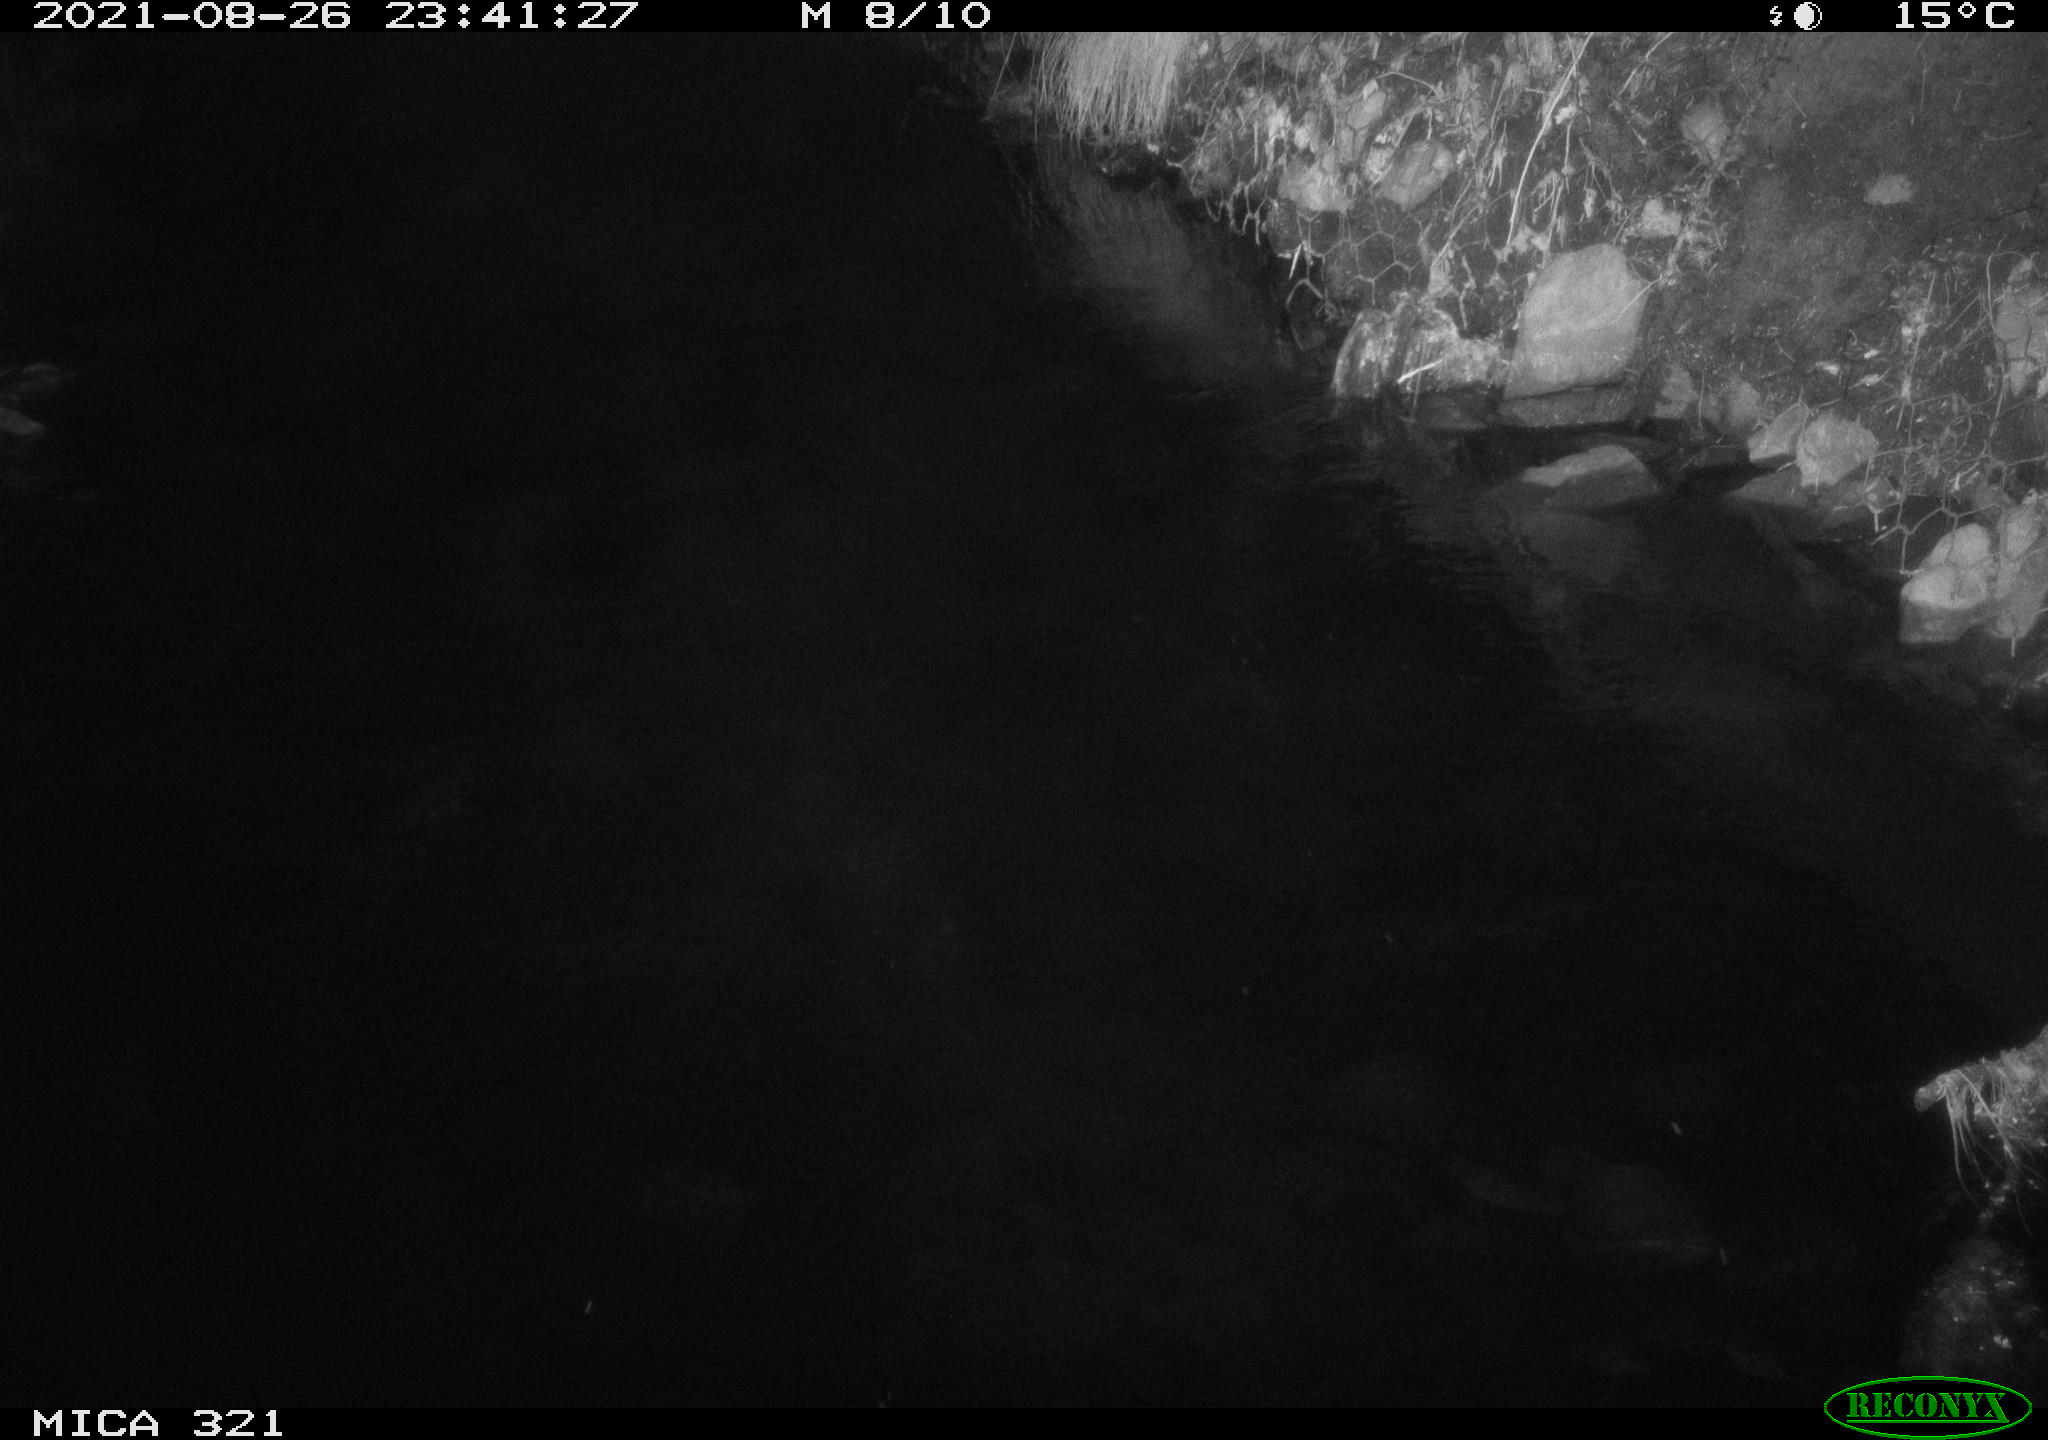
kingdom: Animalia
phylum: Chordata
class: Aves
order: Anseriformes
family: Anatidae
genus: Anas
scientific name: Anas platyrhynchos
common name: Mallard
